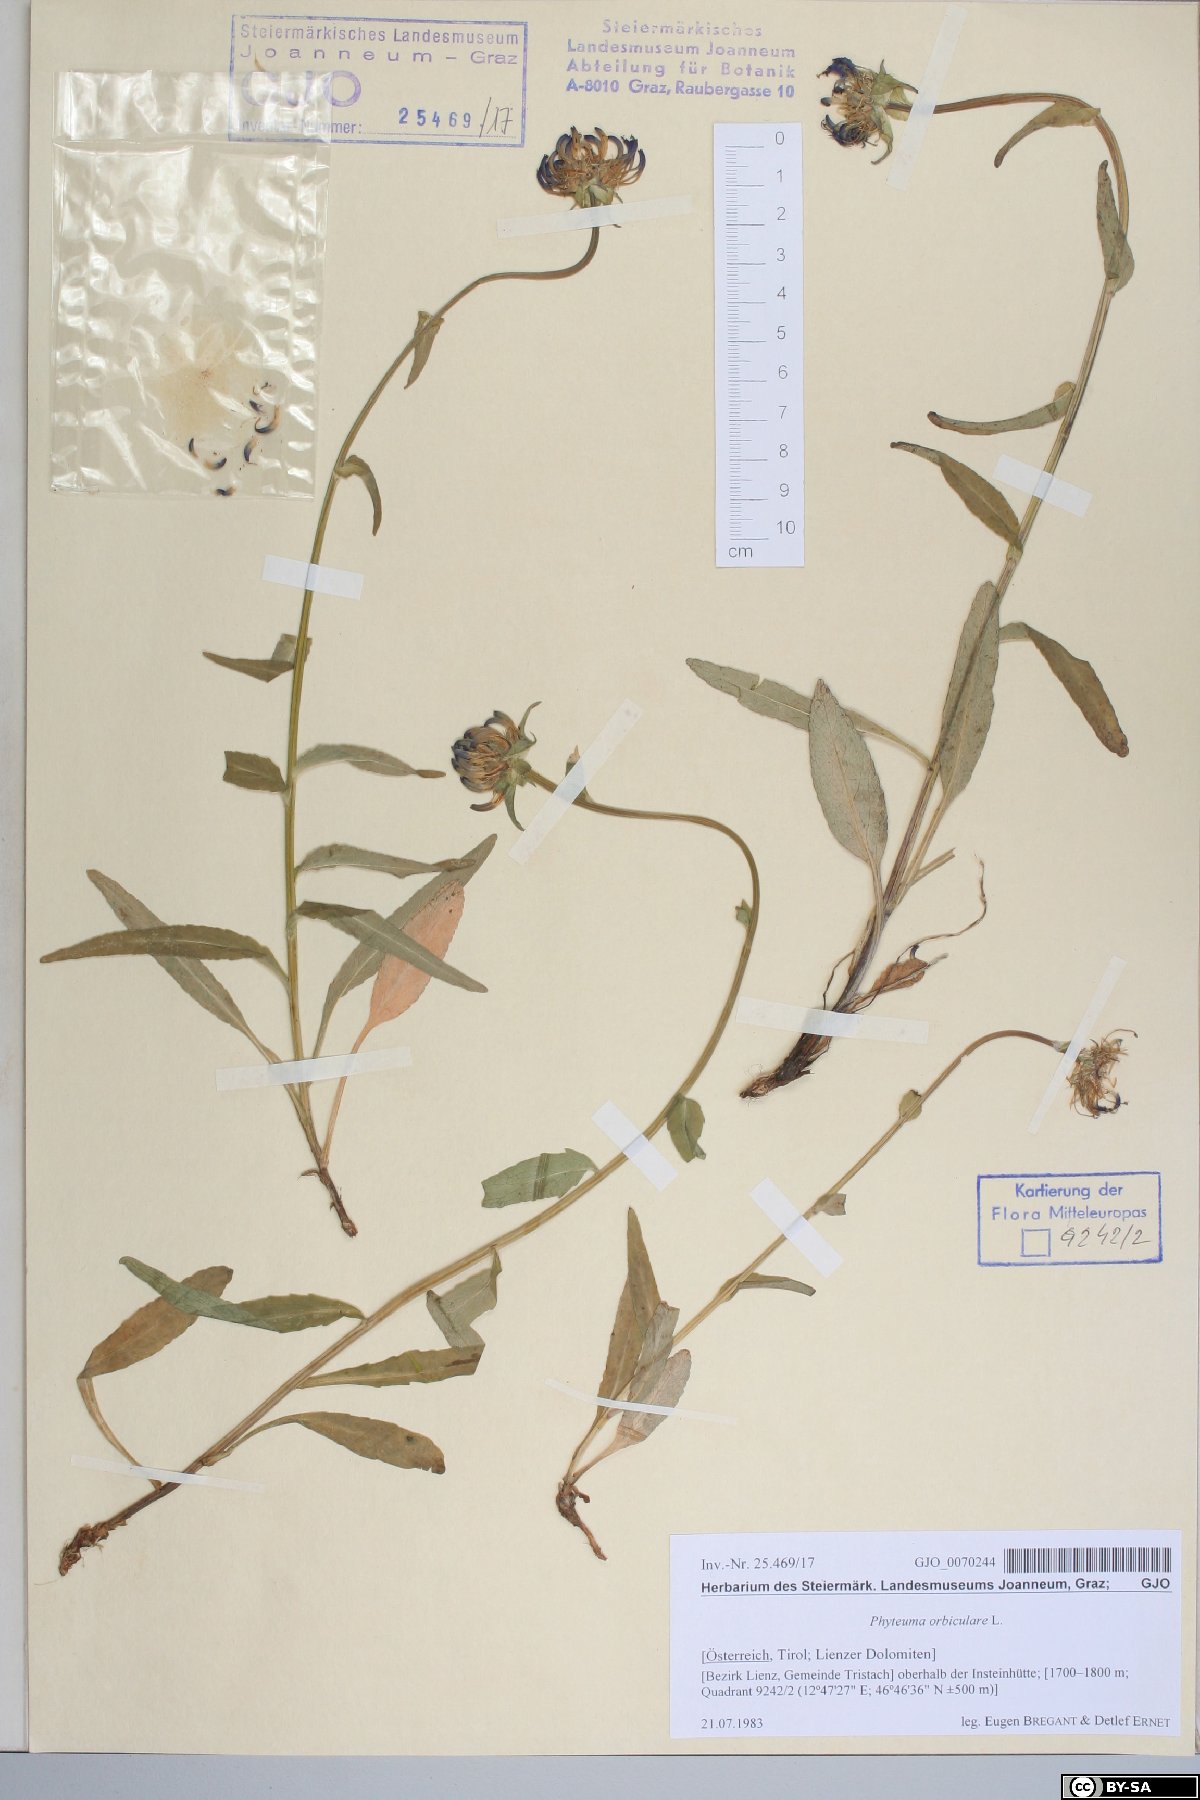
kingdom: Plantae
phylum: Tracheophyta
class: Magnoliopsida
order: Asterales
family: Campanulaceae
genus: Phyteuma
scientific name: Phyteuma orbiculare
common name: Round-headed rampion
